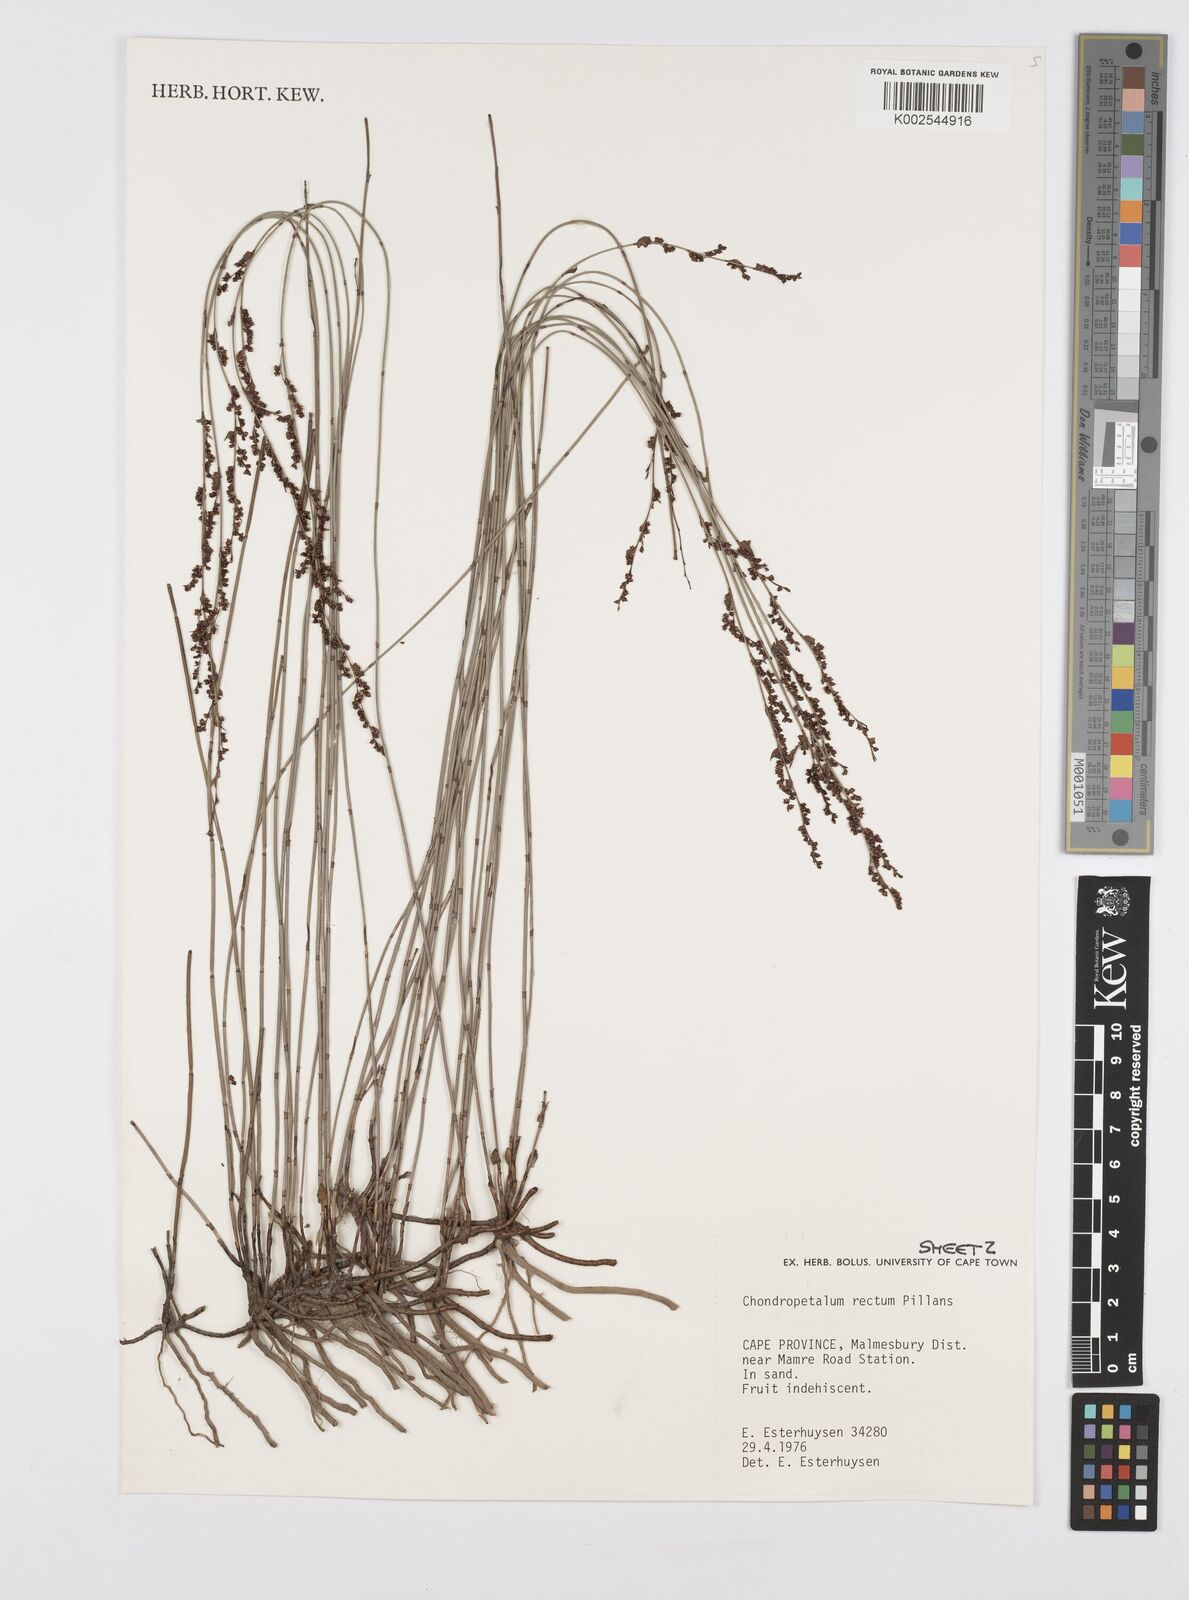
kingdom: Plantae
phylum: Tracheophyta
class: Liliopsida
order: Poales
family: Restionaceae
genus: Elegia
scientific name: Elegia recta
